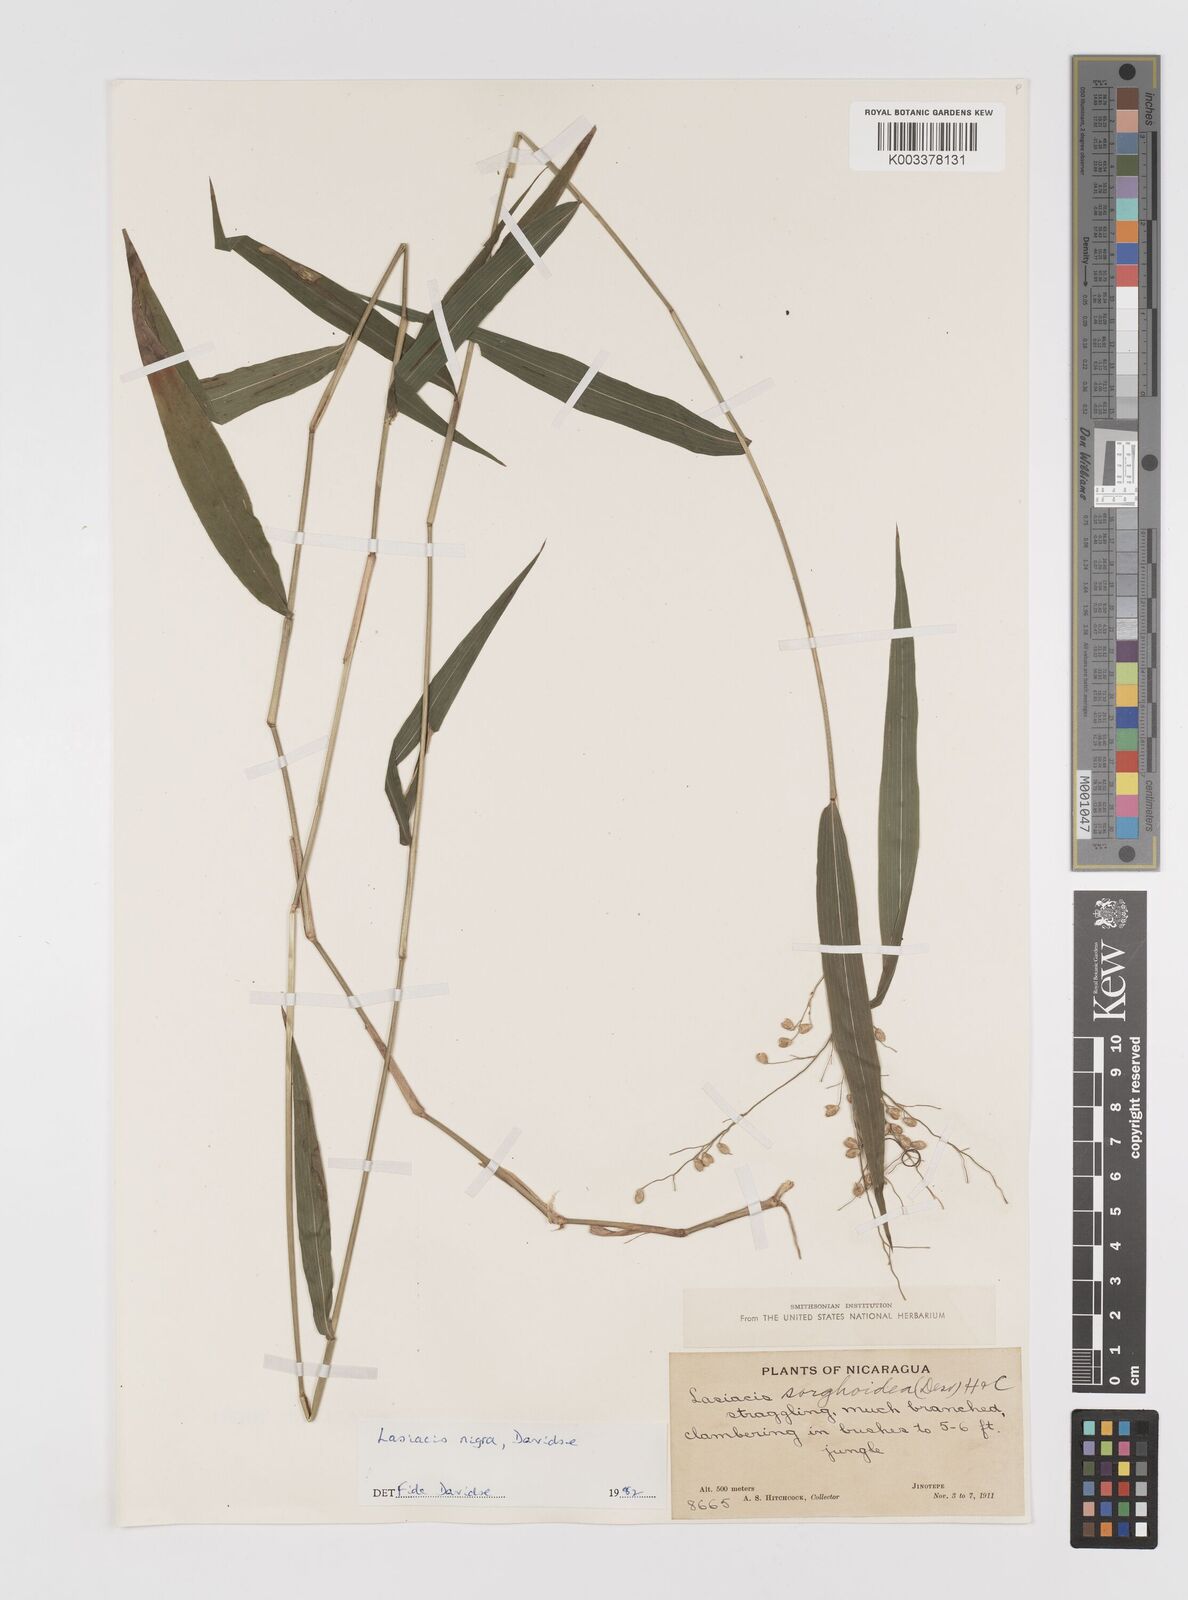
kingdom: Plantae
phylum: Tracheophyta
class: Liliopsida
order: Poales
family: Poaceae
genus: Lasiacis
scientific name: Lasiacis nigra
